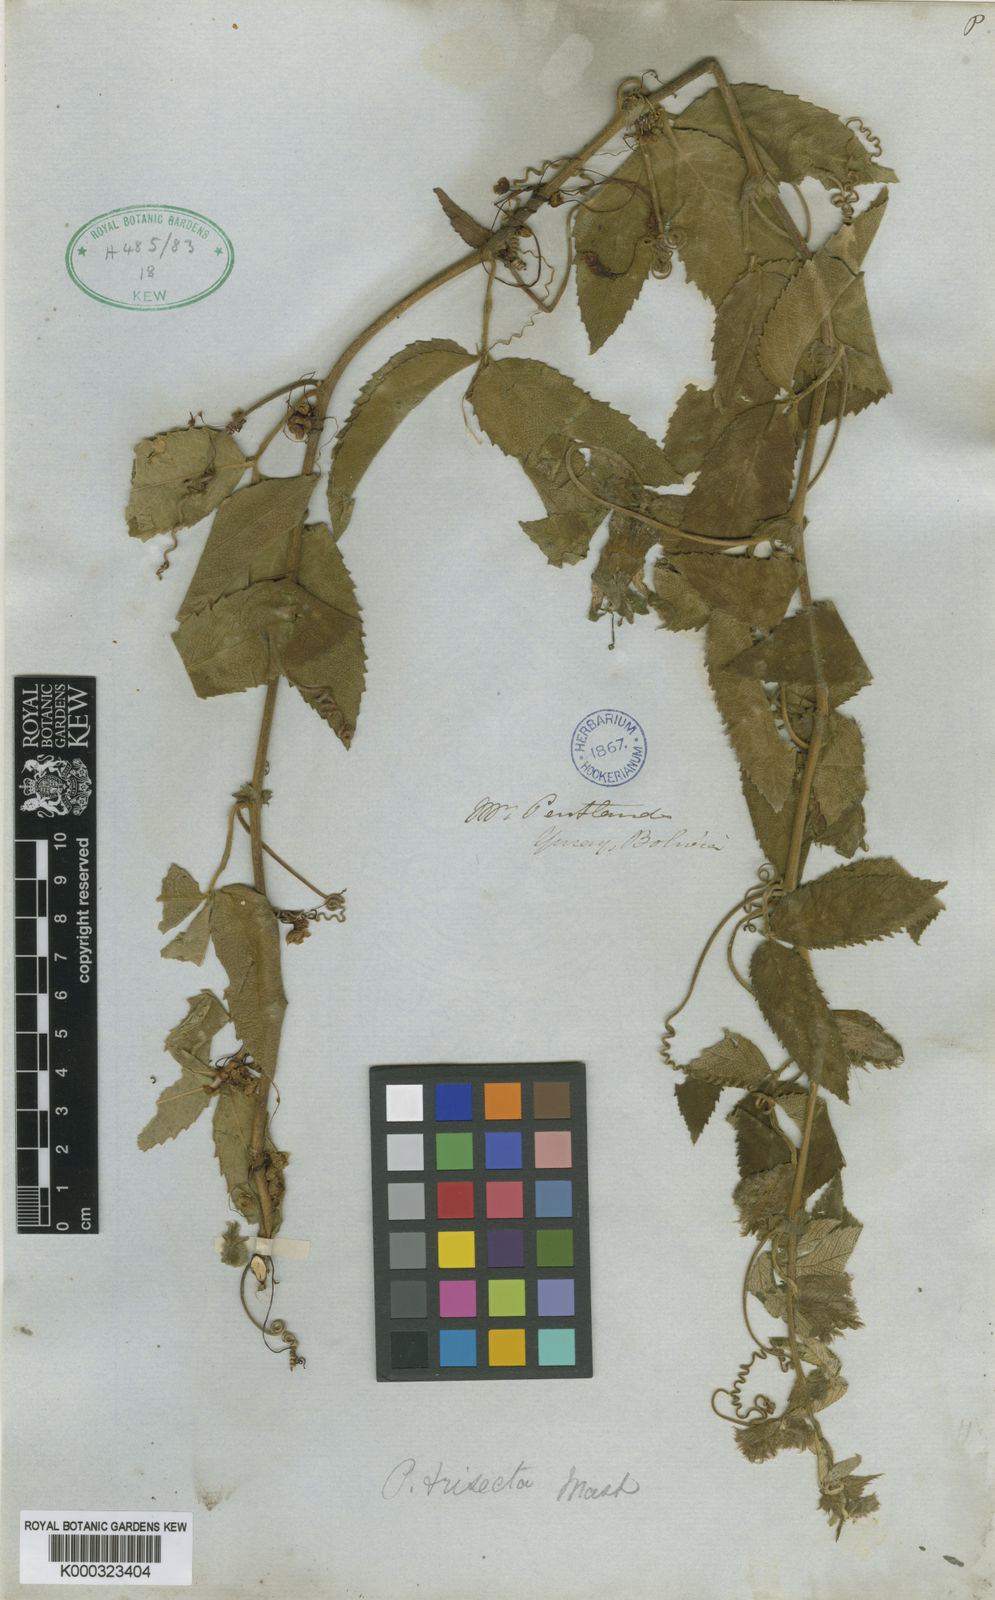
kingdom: Plantae
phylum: Tracheophyta
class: Magnoliopsida
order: Malpighiales
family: Passifloraceae
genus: Passiflora
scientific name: Passiflora trisecta
